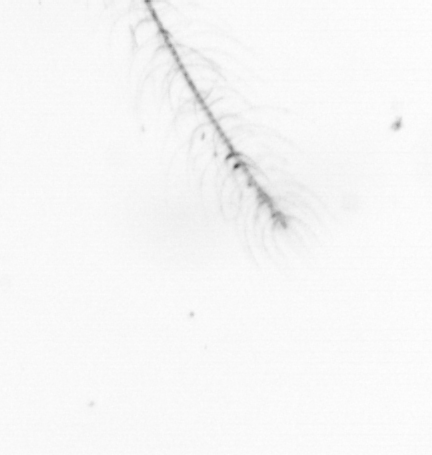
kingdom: Chromista
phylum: Ochrophyta
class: Bacillariophyceae
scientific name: Bacillariophyceae
